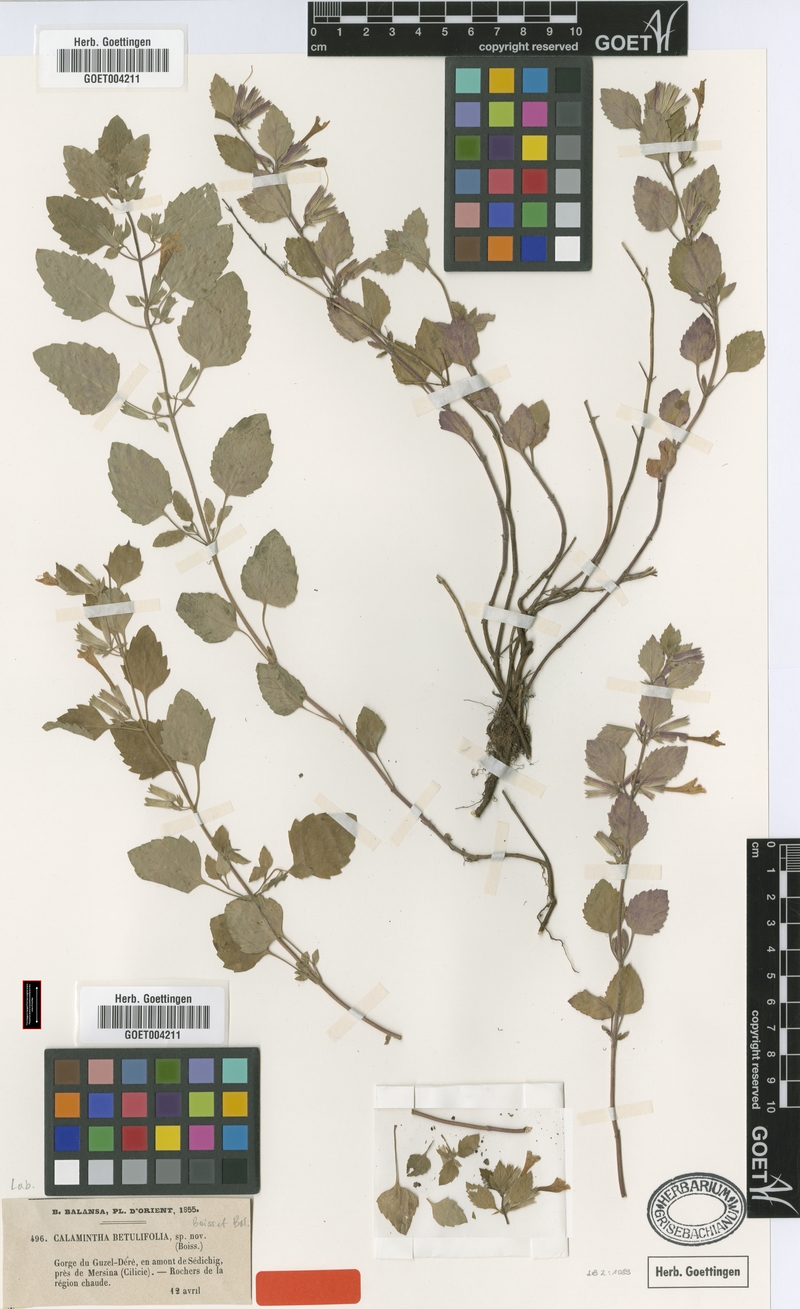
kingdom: Plantae
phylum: Tracheophyta
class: Magnoliopsida
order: Lamiales
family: Lamiaceae
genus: Clinopodium
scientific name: Clinopodium betulifolium
